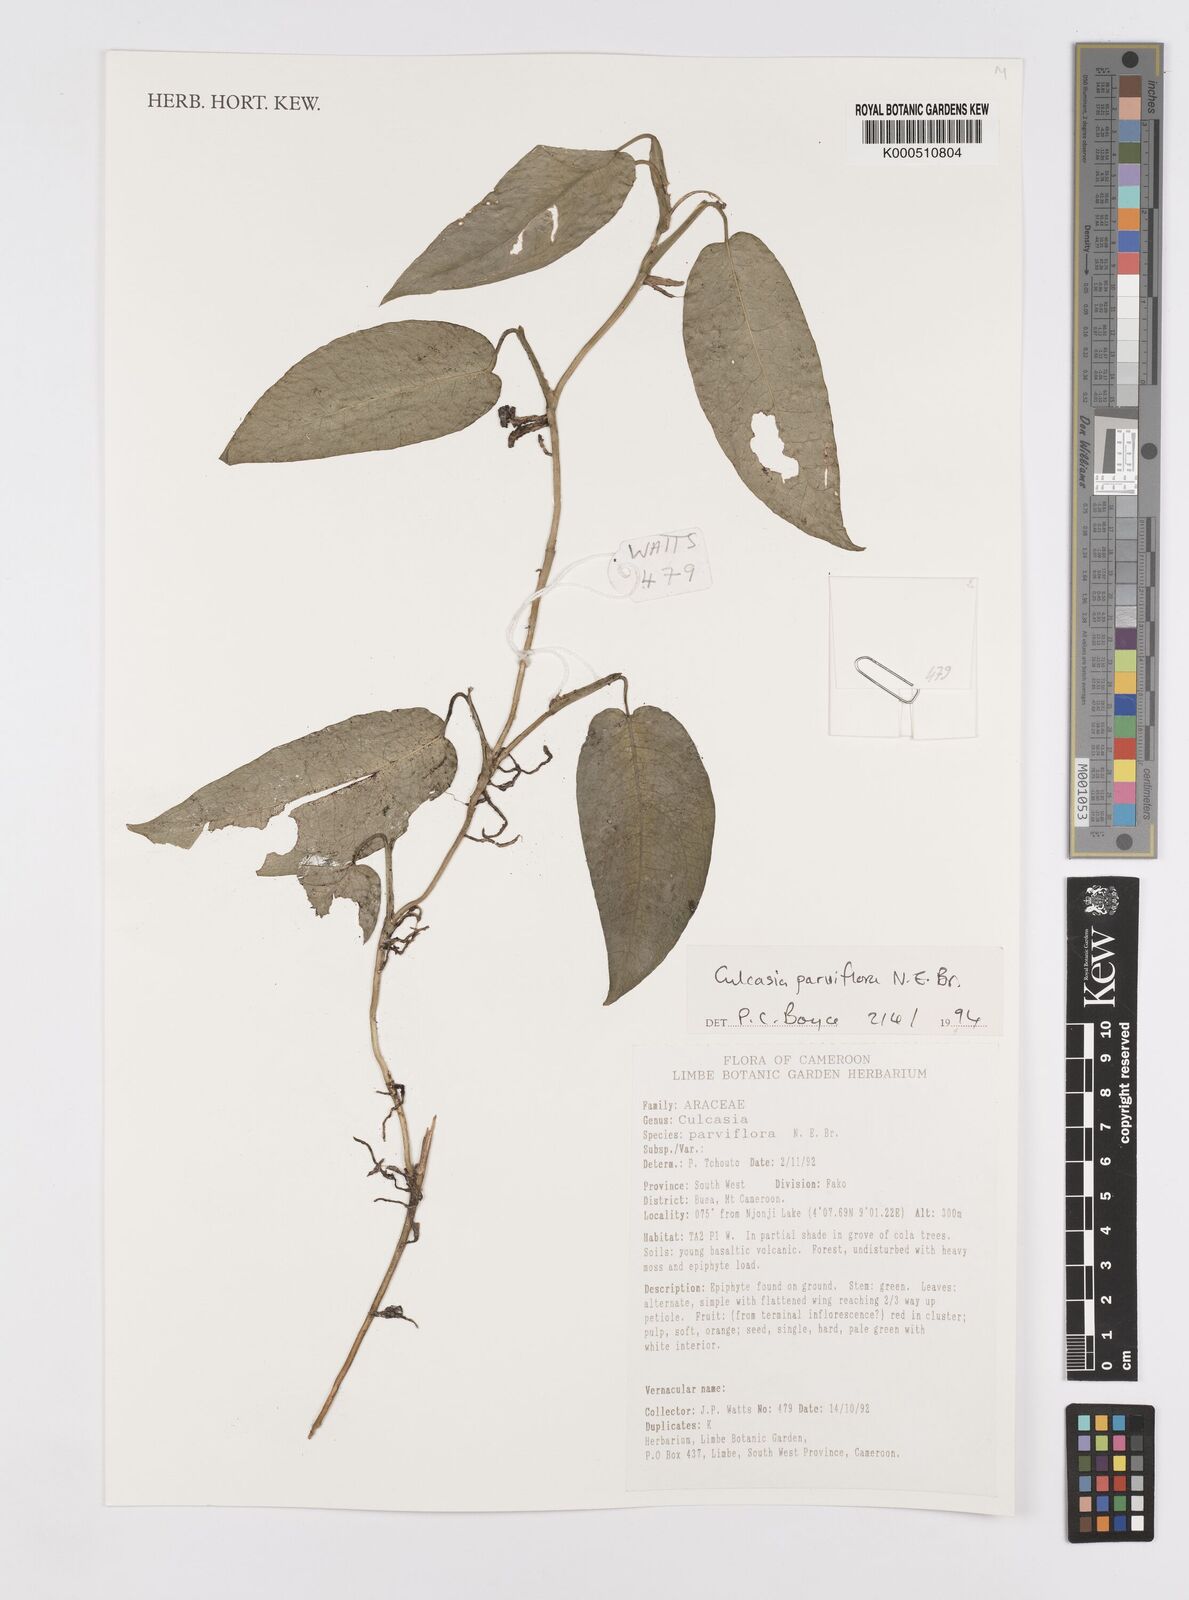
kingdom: Plantae
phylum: Tracheophyta
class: Liliopsida
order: Alismatales
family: Araceae
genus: Culcasia
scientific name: Culcasia parviflora
